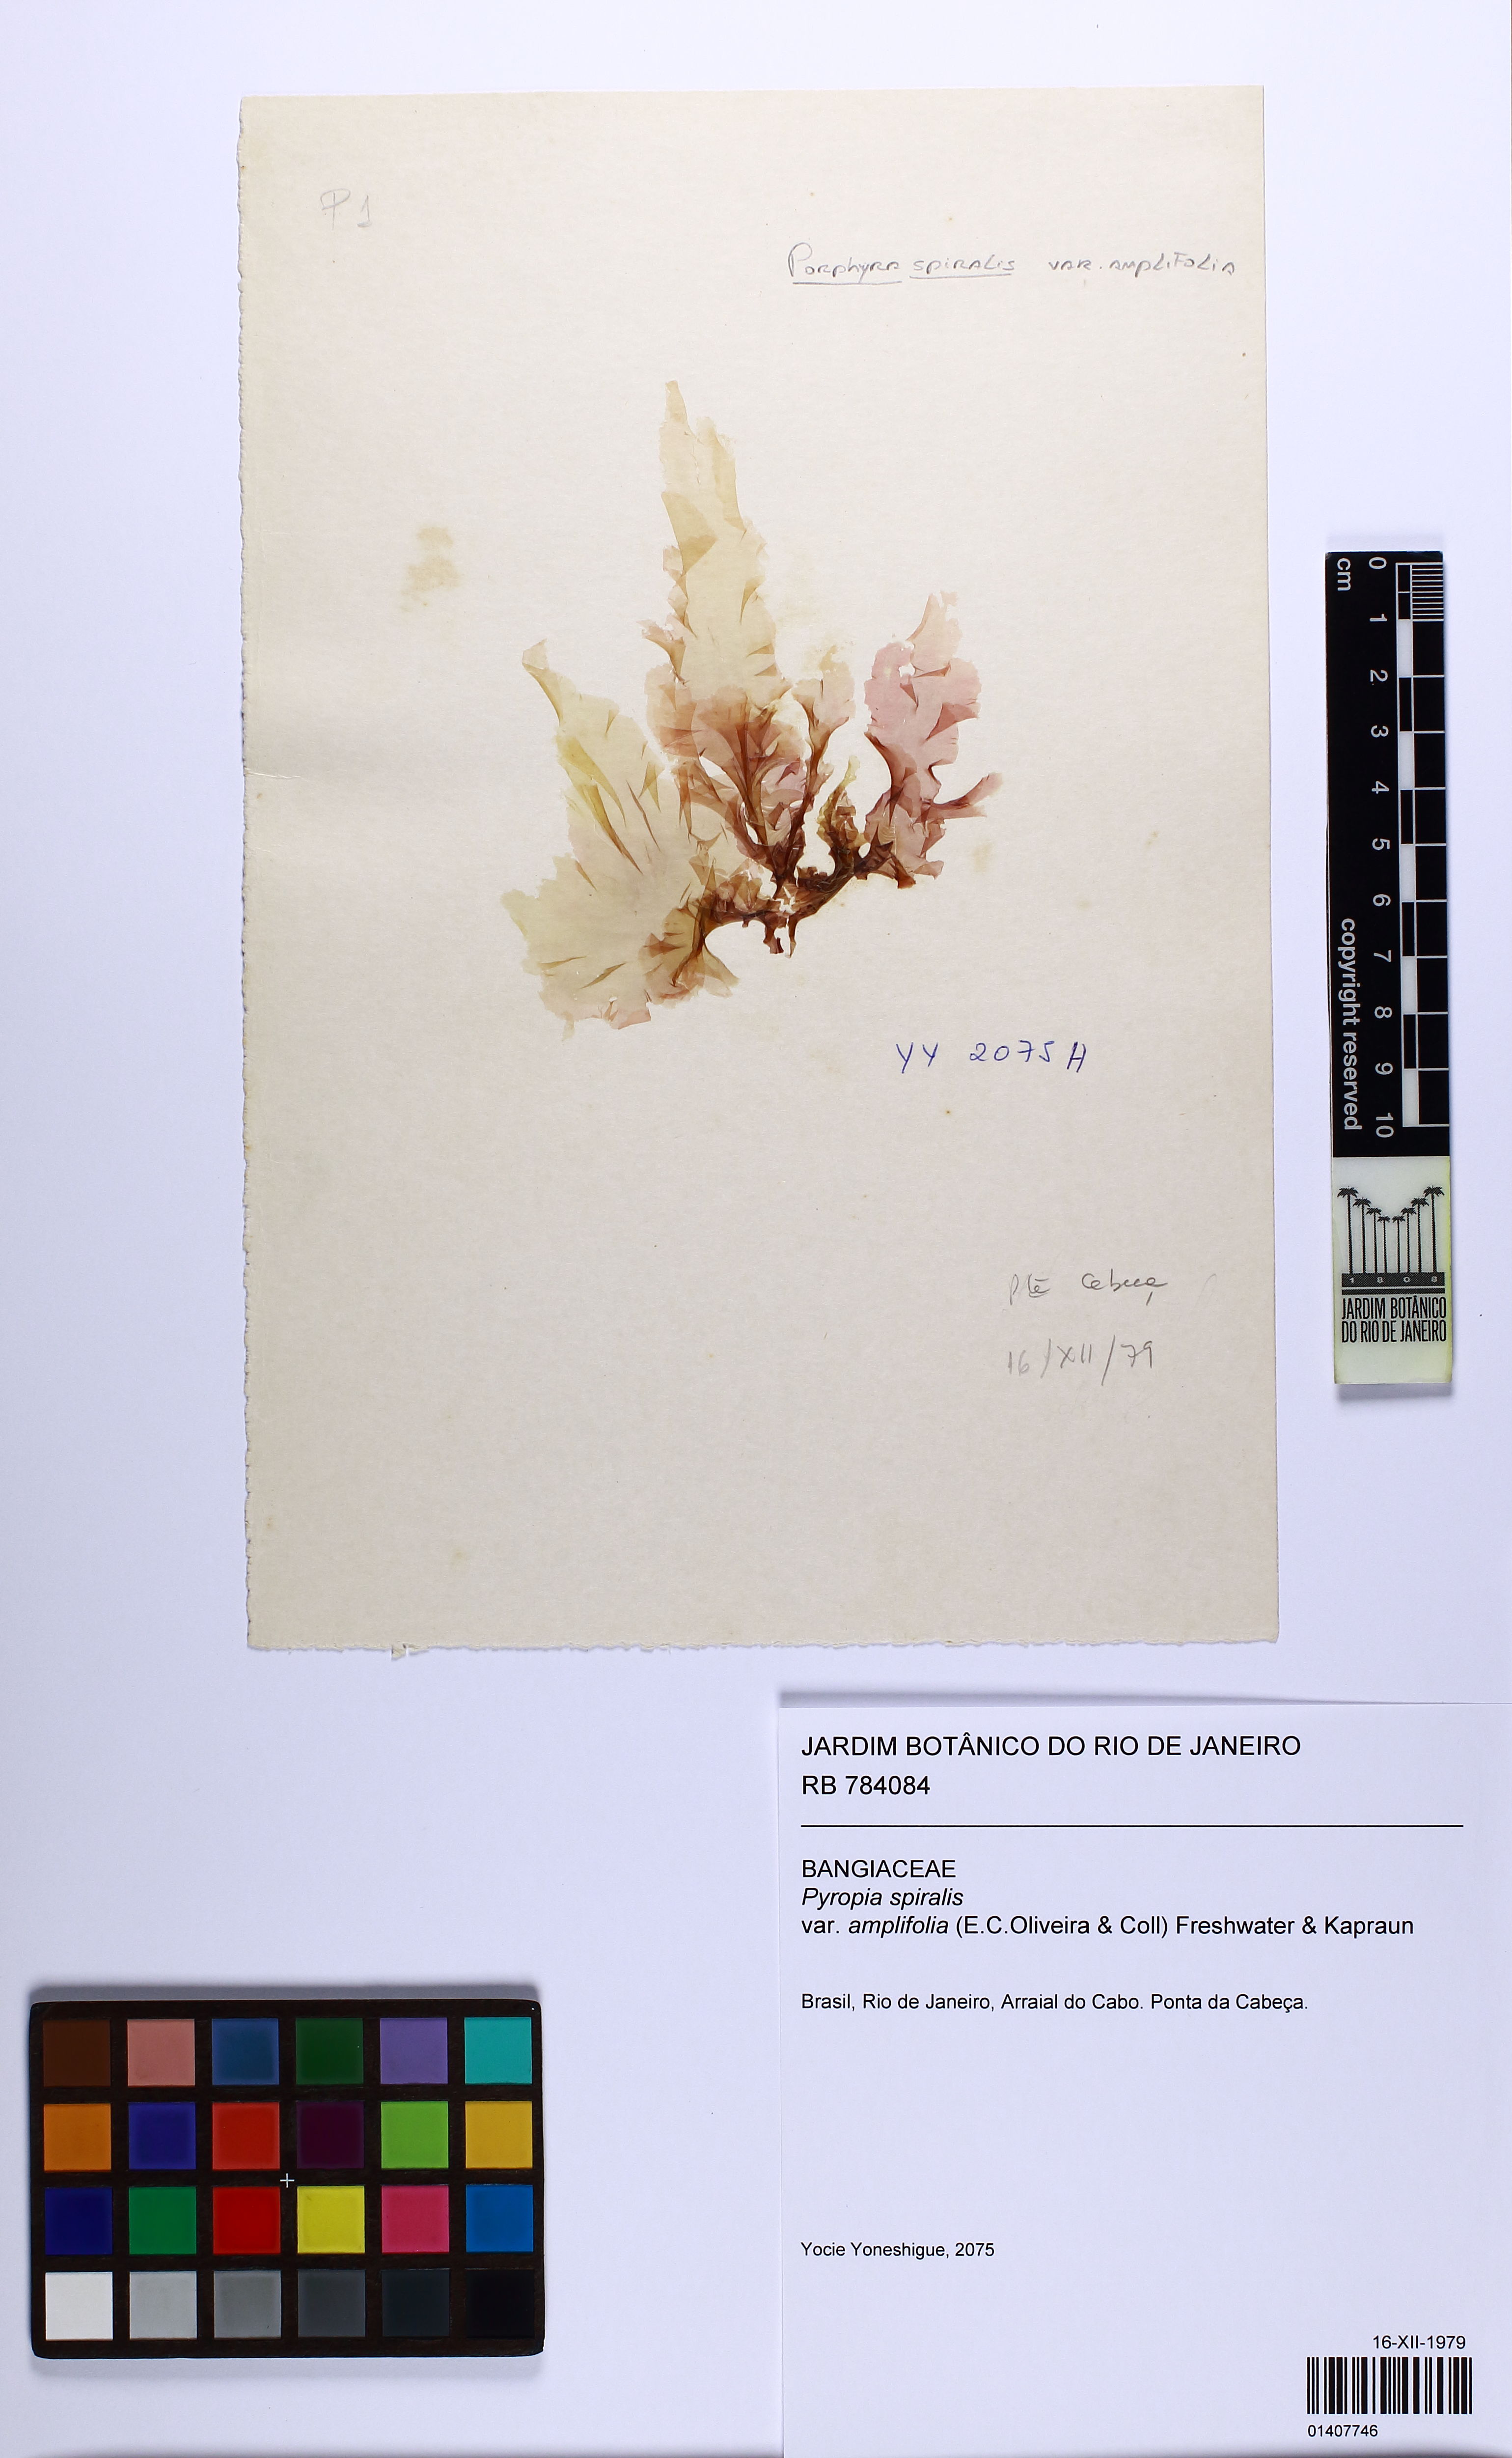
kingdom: Plantae
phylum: Rhodophyta
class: Bangiophyceae
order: Bangiales
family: Bangiaceae
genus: Pyropia
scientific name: Pyropia spiralis
